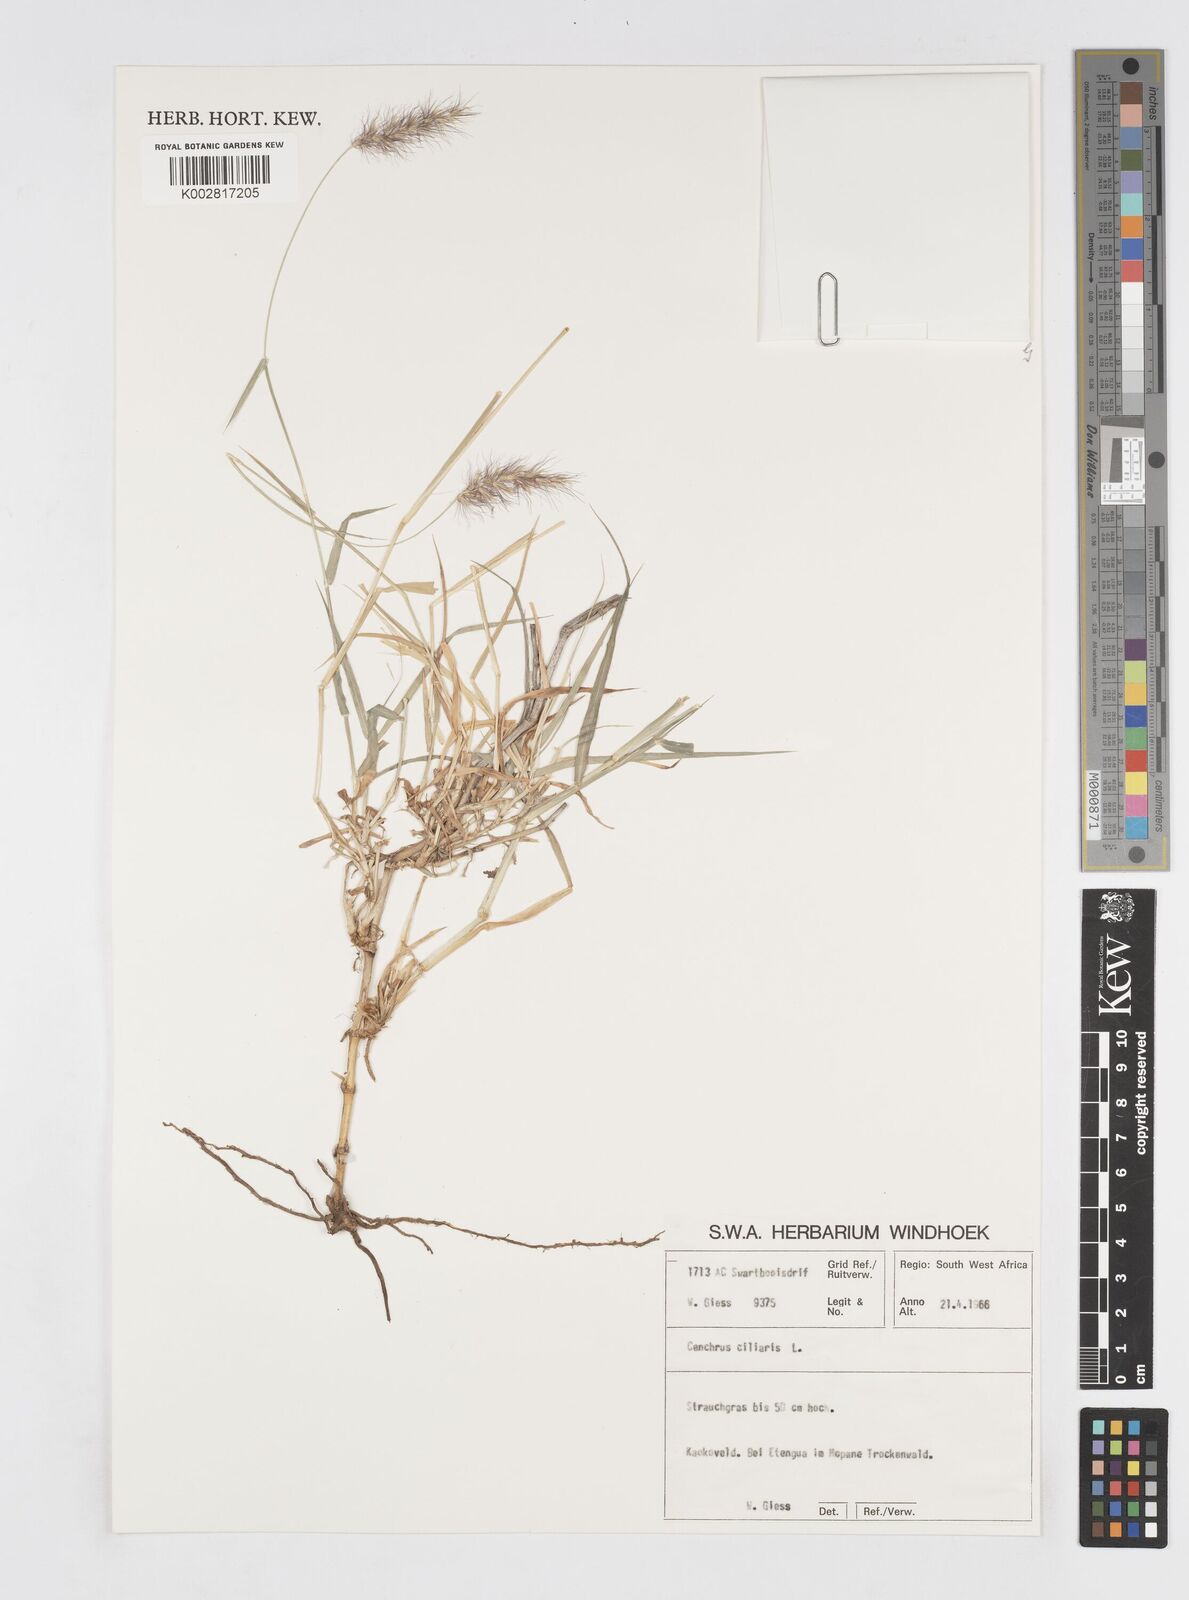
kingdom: Plantae
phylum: Tracheophyta
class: Liliopsida
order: Poales
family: Poaceae
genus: Cenchrus
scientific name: Cenchrus ciliaris
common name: Buffelgrass
